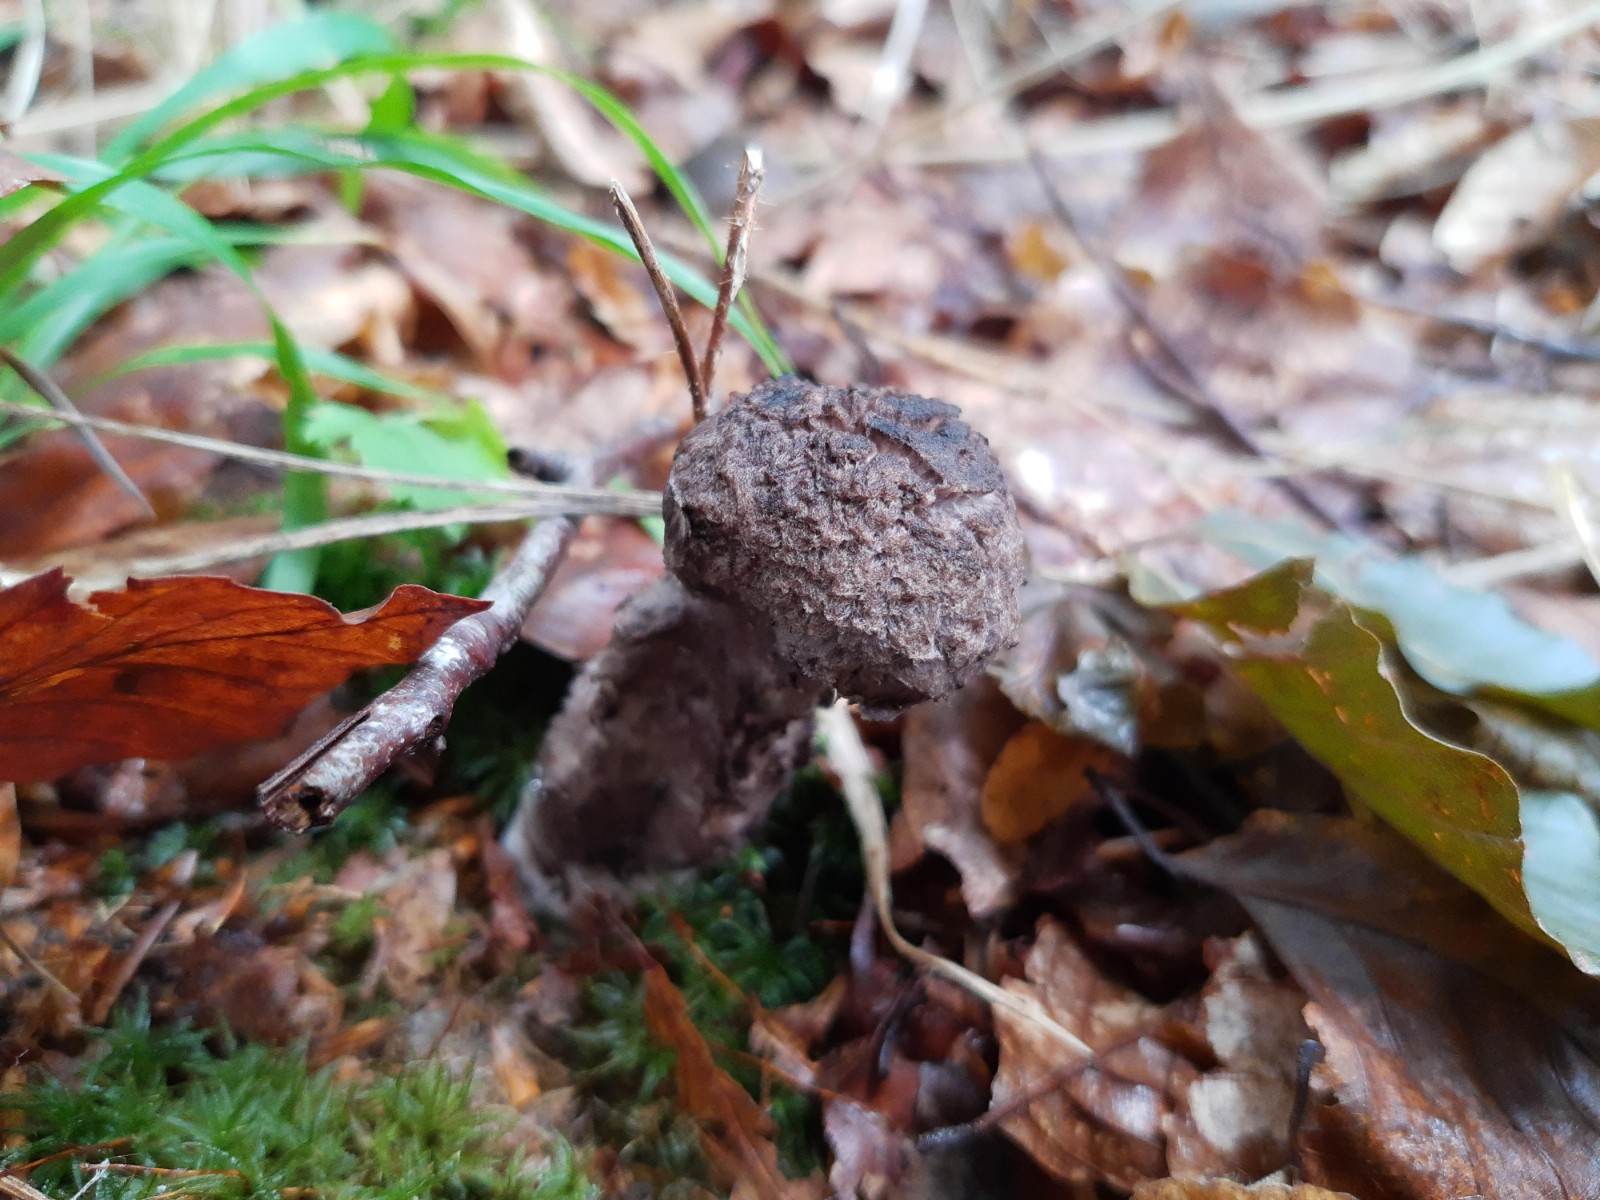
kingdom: Fungi
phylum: Basidiomycota
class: Agaricomycetes
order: Boletales
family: Boletaceae
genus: Strobilomyces
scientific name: Strobilomyces strobilaceus
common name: koglerørhat
